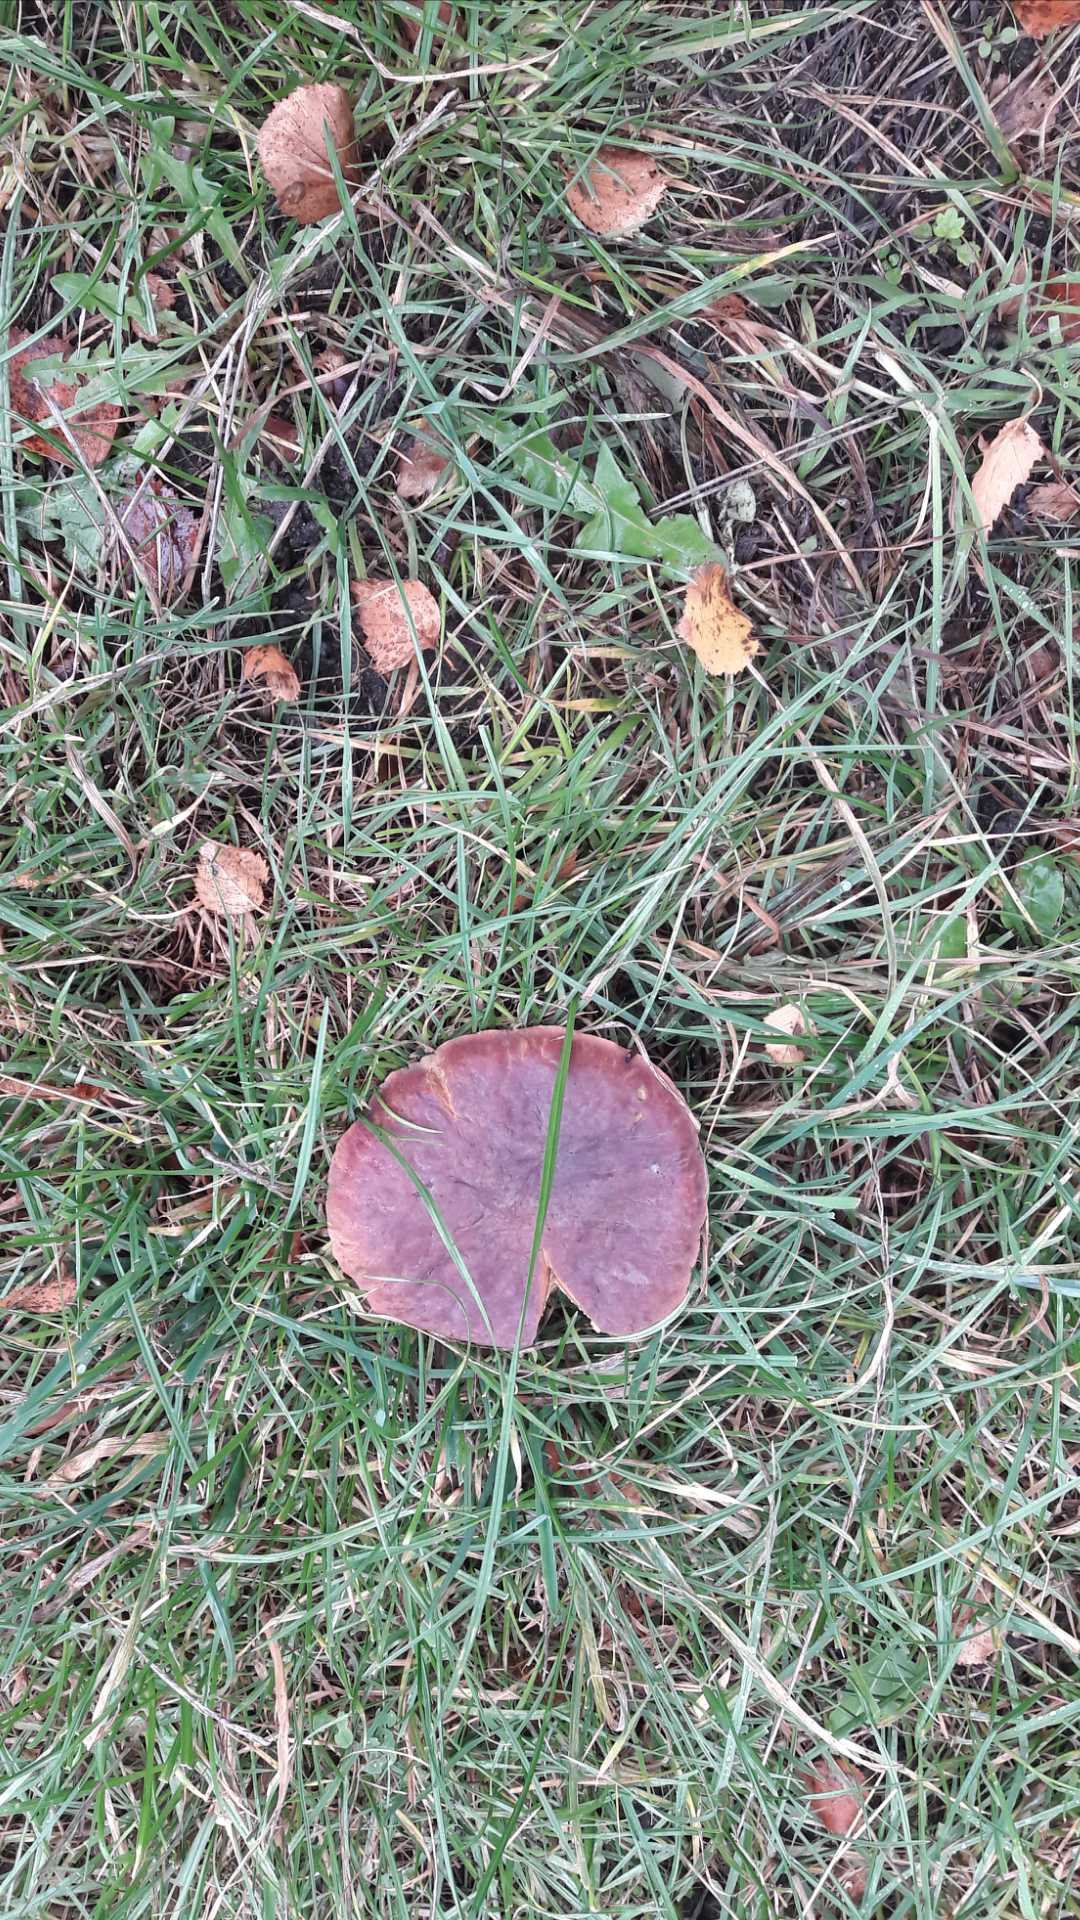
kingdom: Fungi
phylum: Basidiomycota
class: Agaricomycetes
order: Boletales
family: Boletaceae
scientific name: Boletaceae
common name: rørhatfamilien
